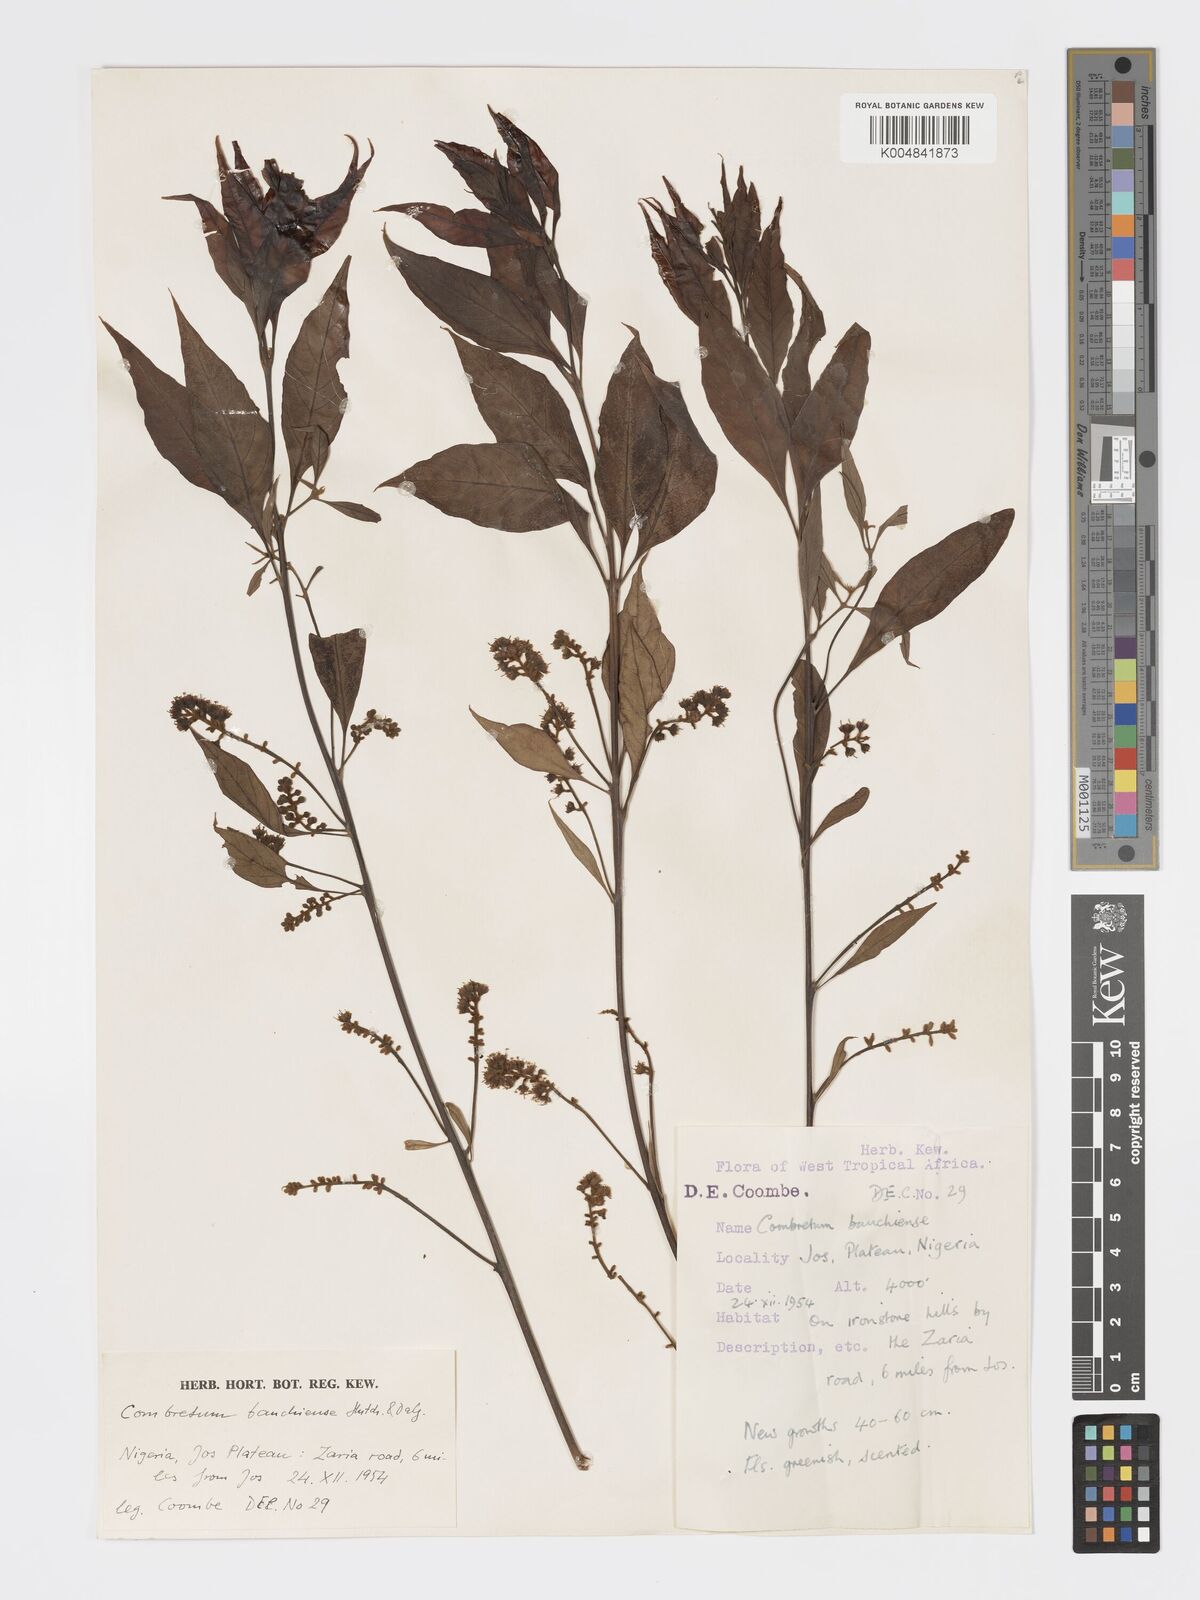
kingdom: Plantae
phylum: Tracheophyta
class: Magnoliopsida
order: Myrtales
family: Combretaceae
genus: Combretum
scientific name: Combretum bauchiense
